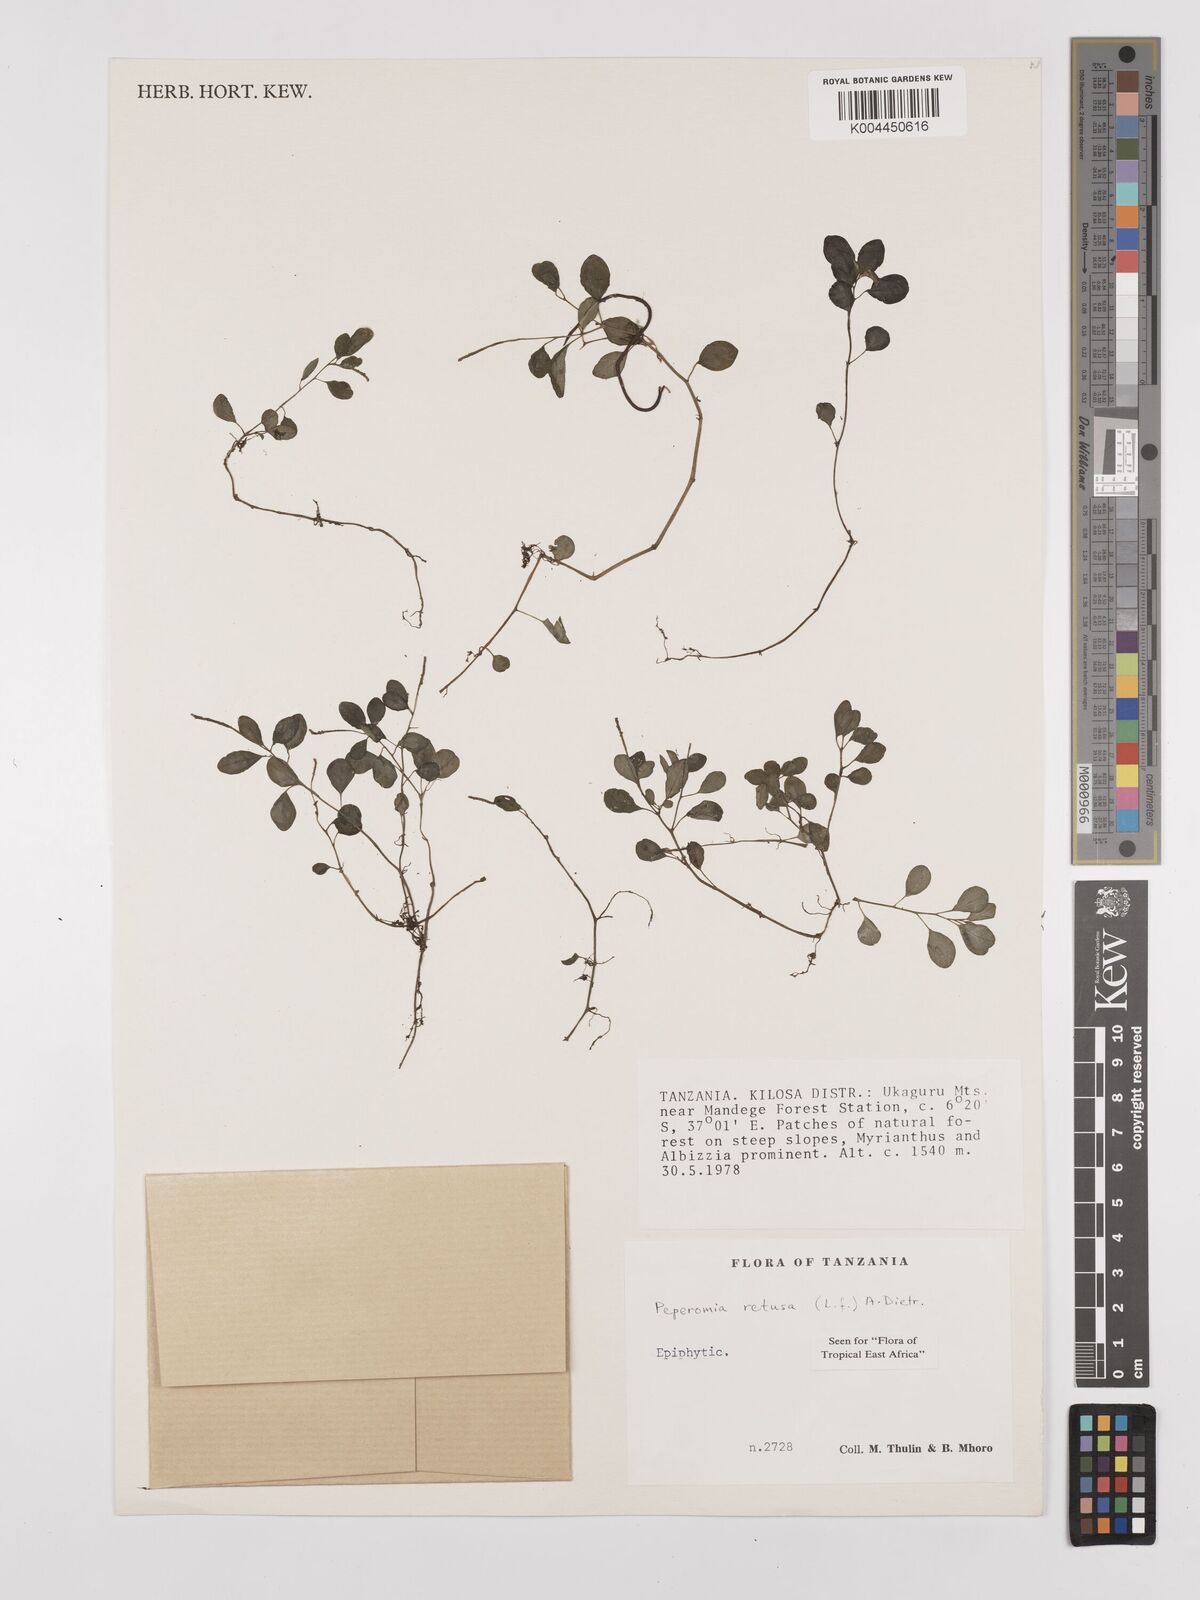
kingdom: Plantae
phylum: Tracheophyta
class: Magnoliopsida
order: Piperales
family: Piperaceae
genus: Peperomia
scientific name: Peperomia retusa
